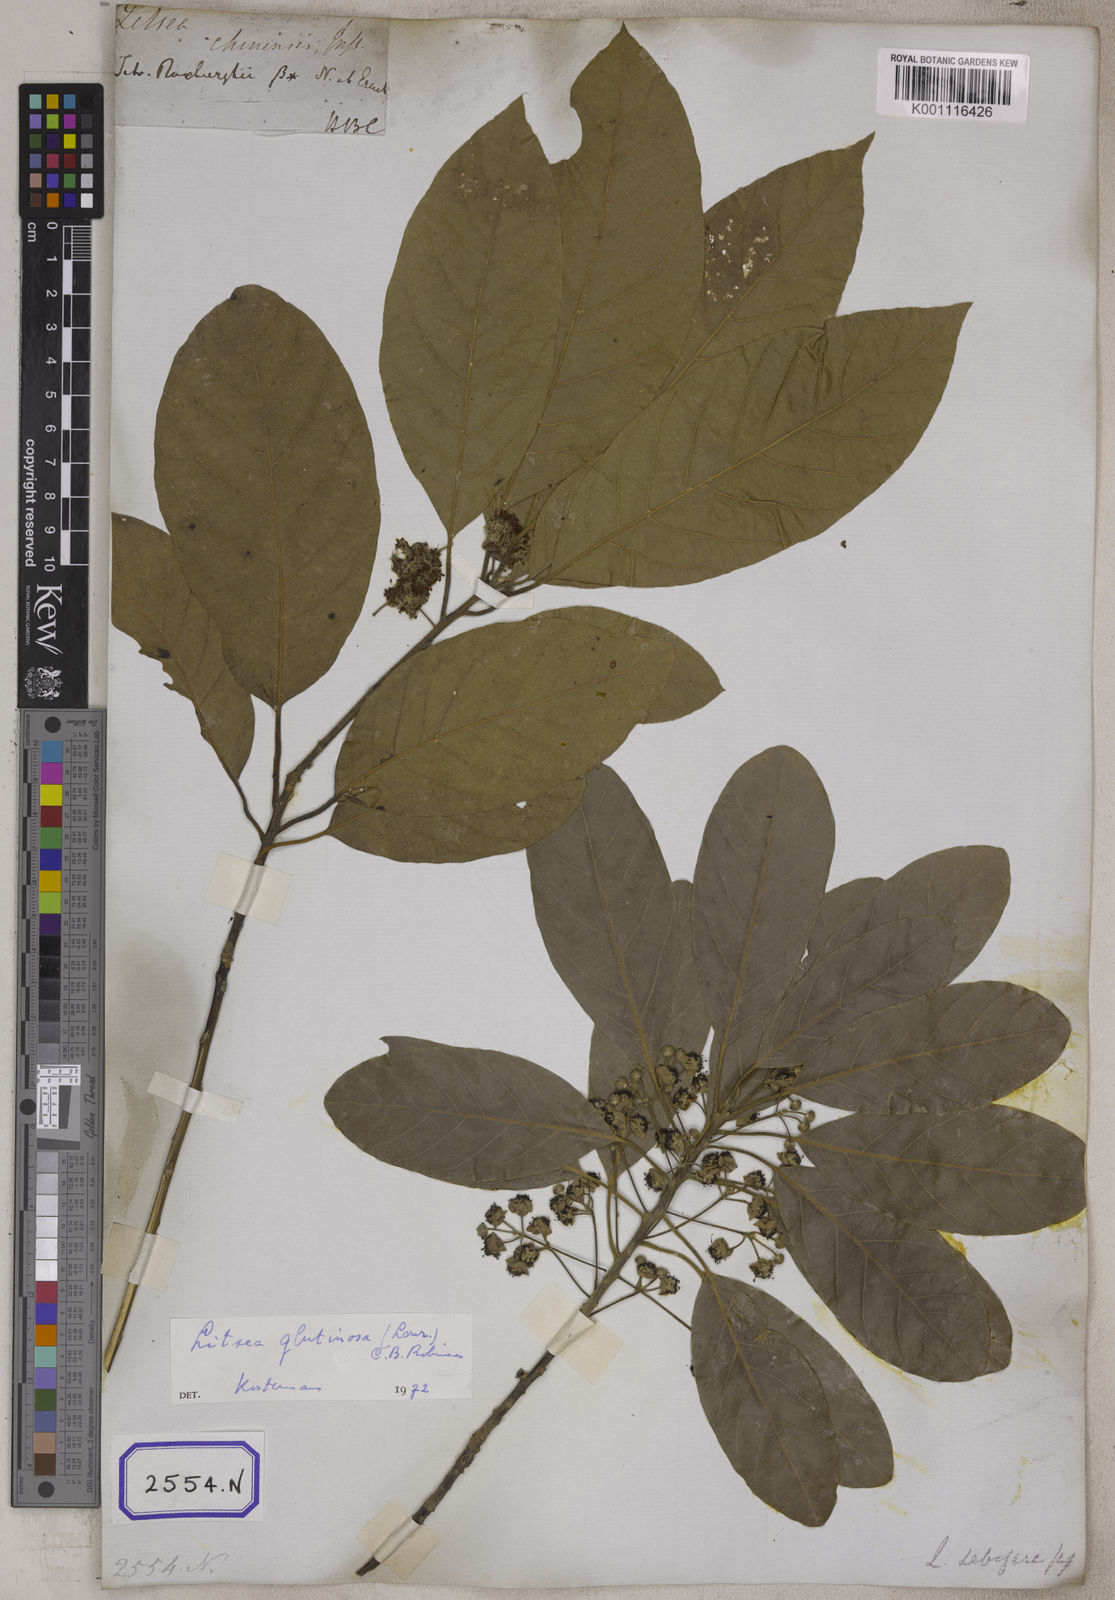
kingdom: Plantae
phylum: Tracheophyta
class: Magnoliopsida
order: Laurales
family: Lauraceae
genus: Litsea
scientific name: Litsea glutinosa
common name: Indian-laurel
